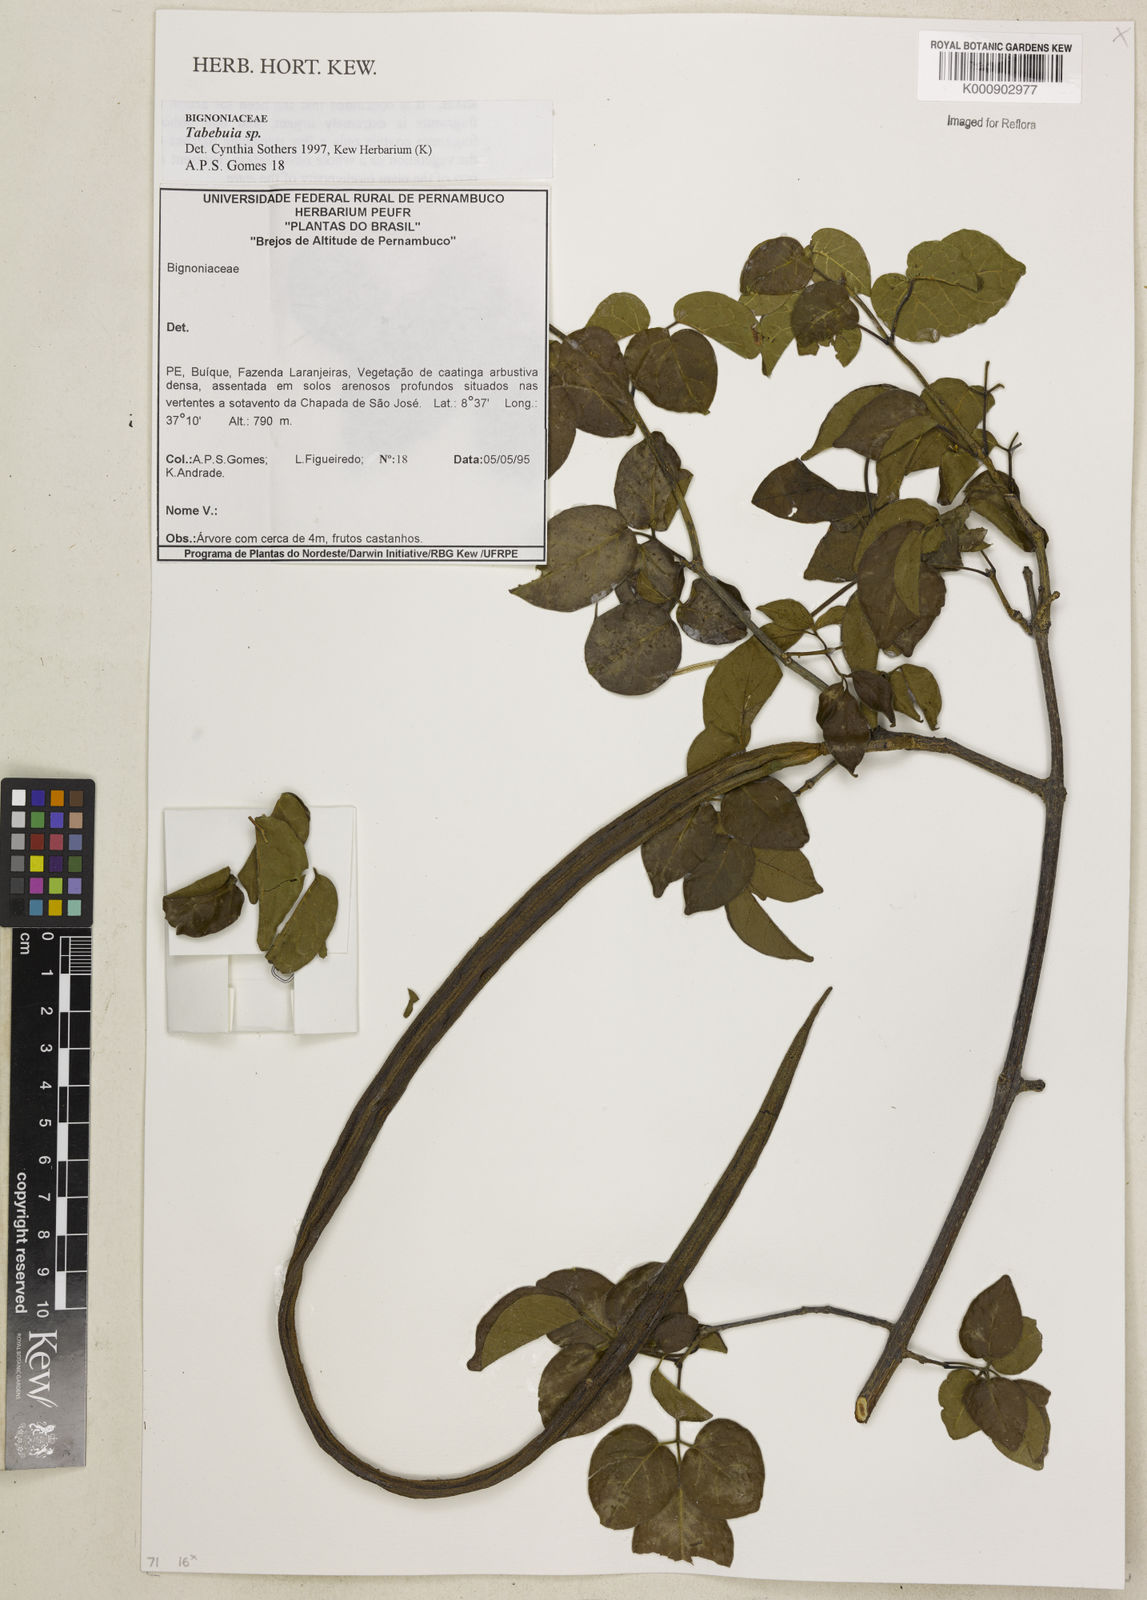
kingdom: Plantae
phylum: Tracheophyta
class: Magnoliopsida
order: Lamiales
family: Bignoniaceae
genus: Tabebuia
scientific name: Tabebuia
